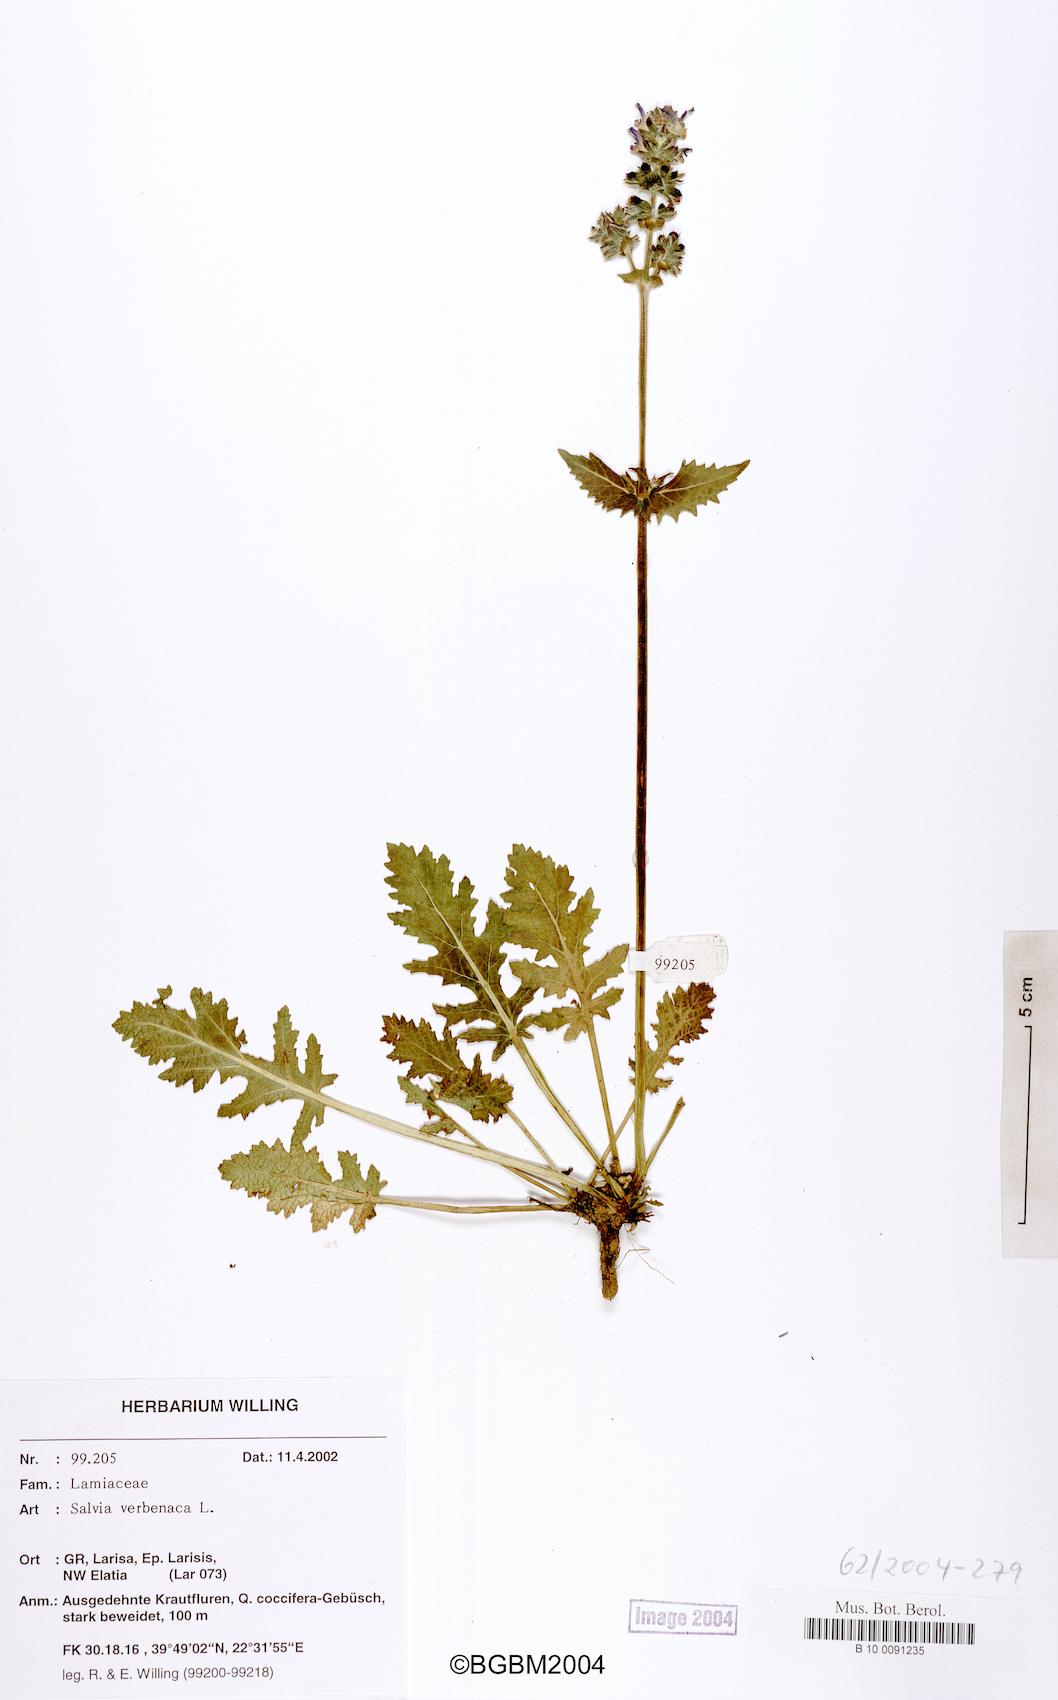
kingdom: Plantae
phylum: Tracheophyta
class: Magnoliopsida
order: Lamiales
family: Lamiaceae
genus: Salvia
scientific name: Salvia verbenaca
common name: Wild clary
